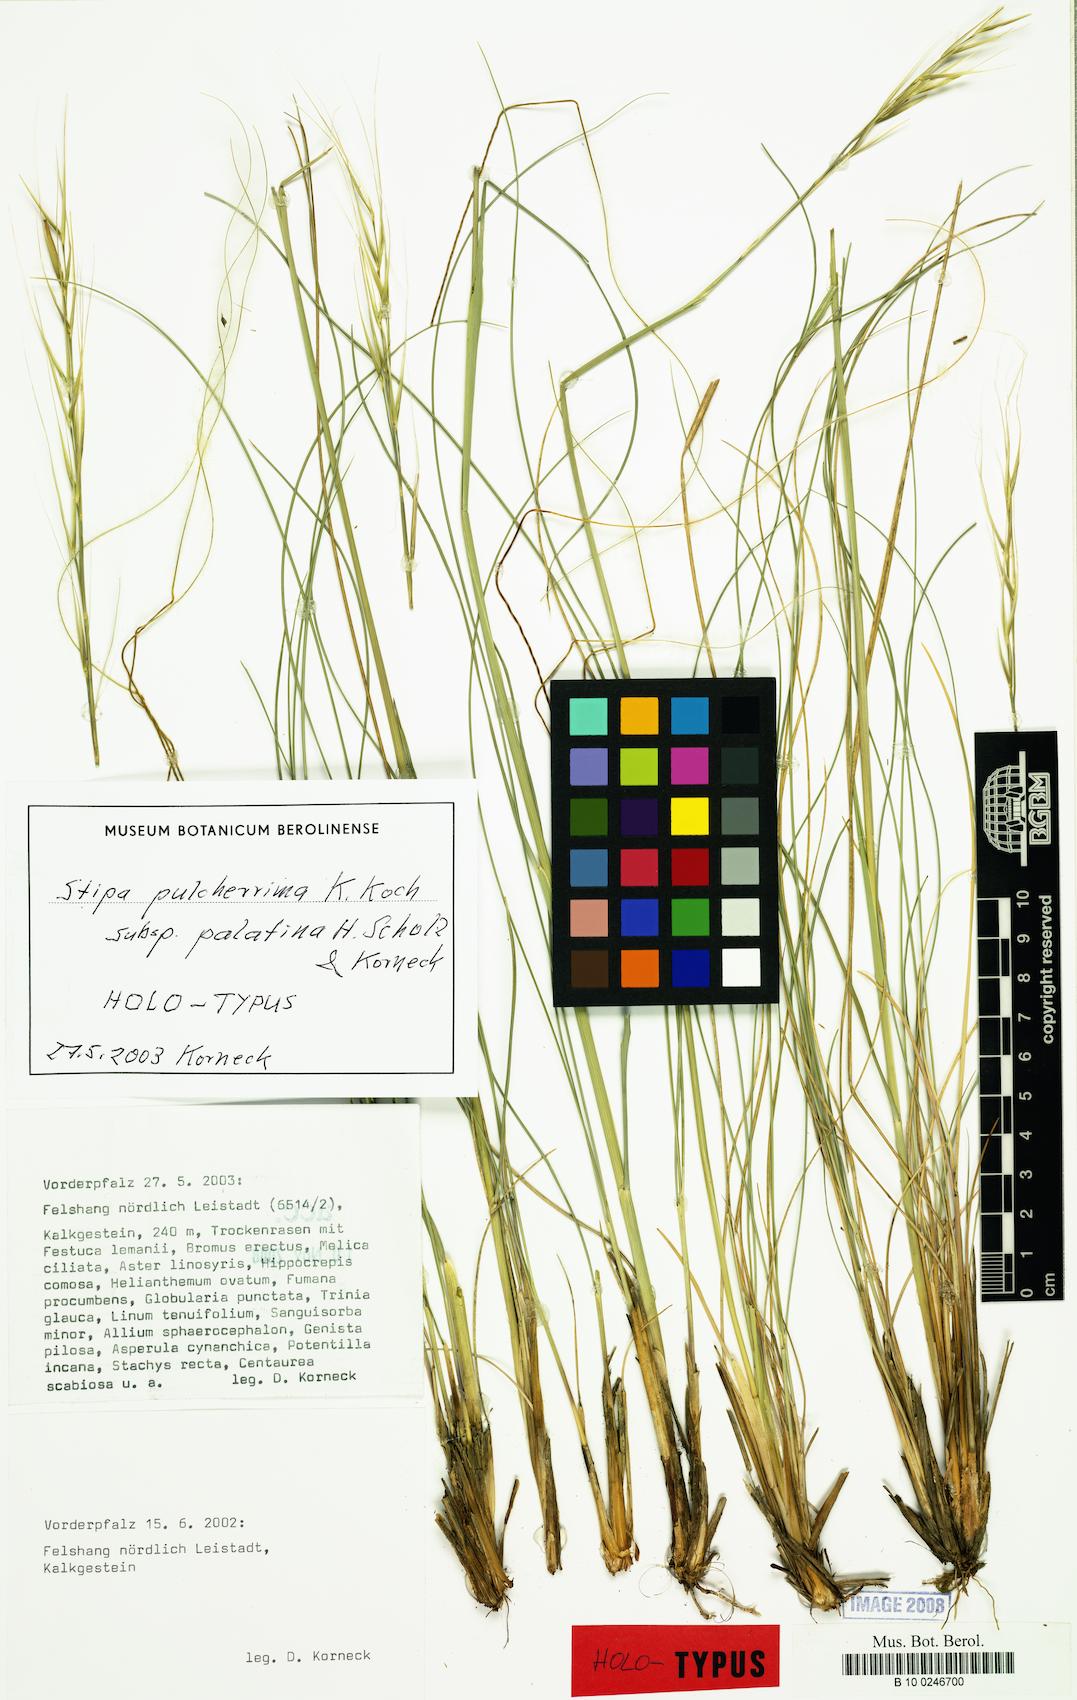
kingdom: Plantae
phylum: Tracheophyta
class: Liliopsida
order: Poales
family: Poaceae
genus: Stipa
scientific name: Stipa pulcherrima
